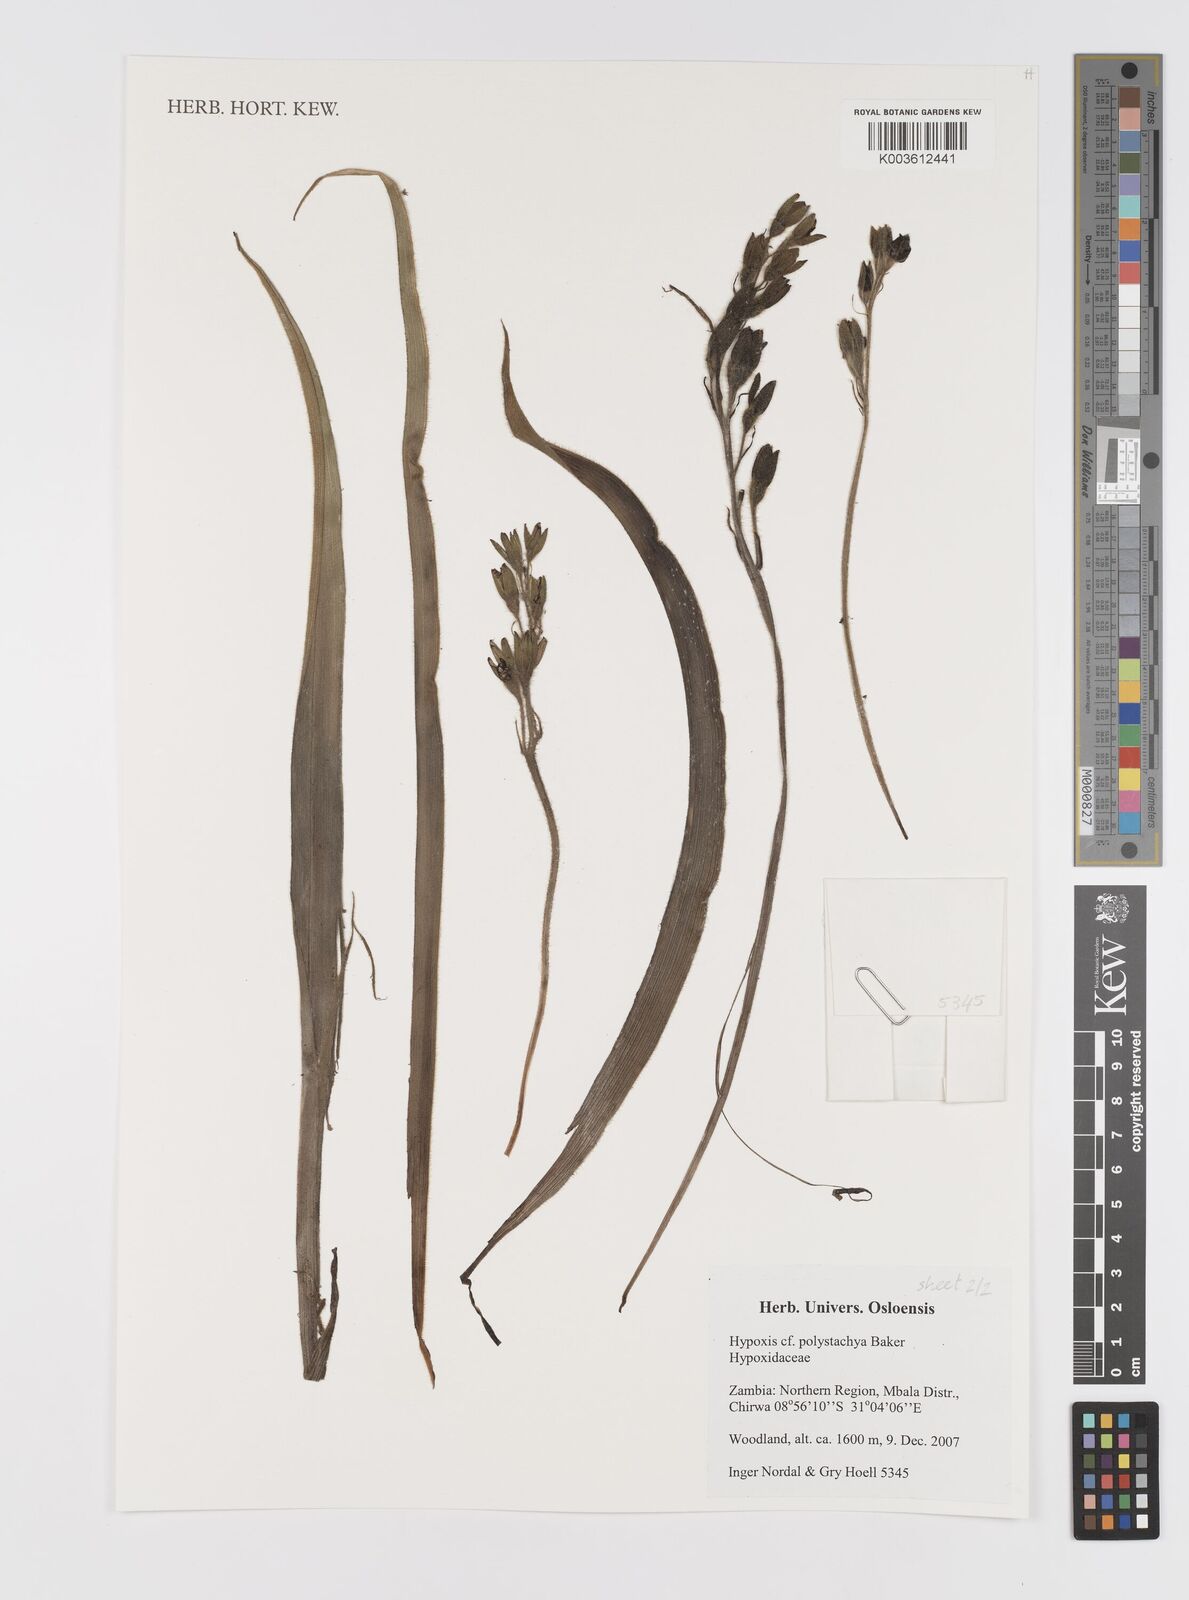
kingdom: Plantae
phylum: Tracheophyta
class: Liliopsida
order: Asparagales
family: Hypoxidaceae
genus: Hypoxis
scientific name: Hypoxis polystachya
